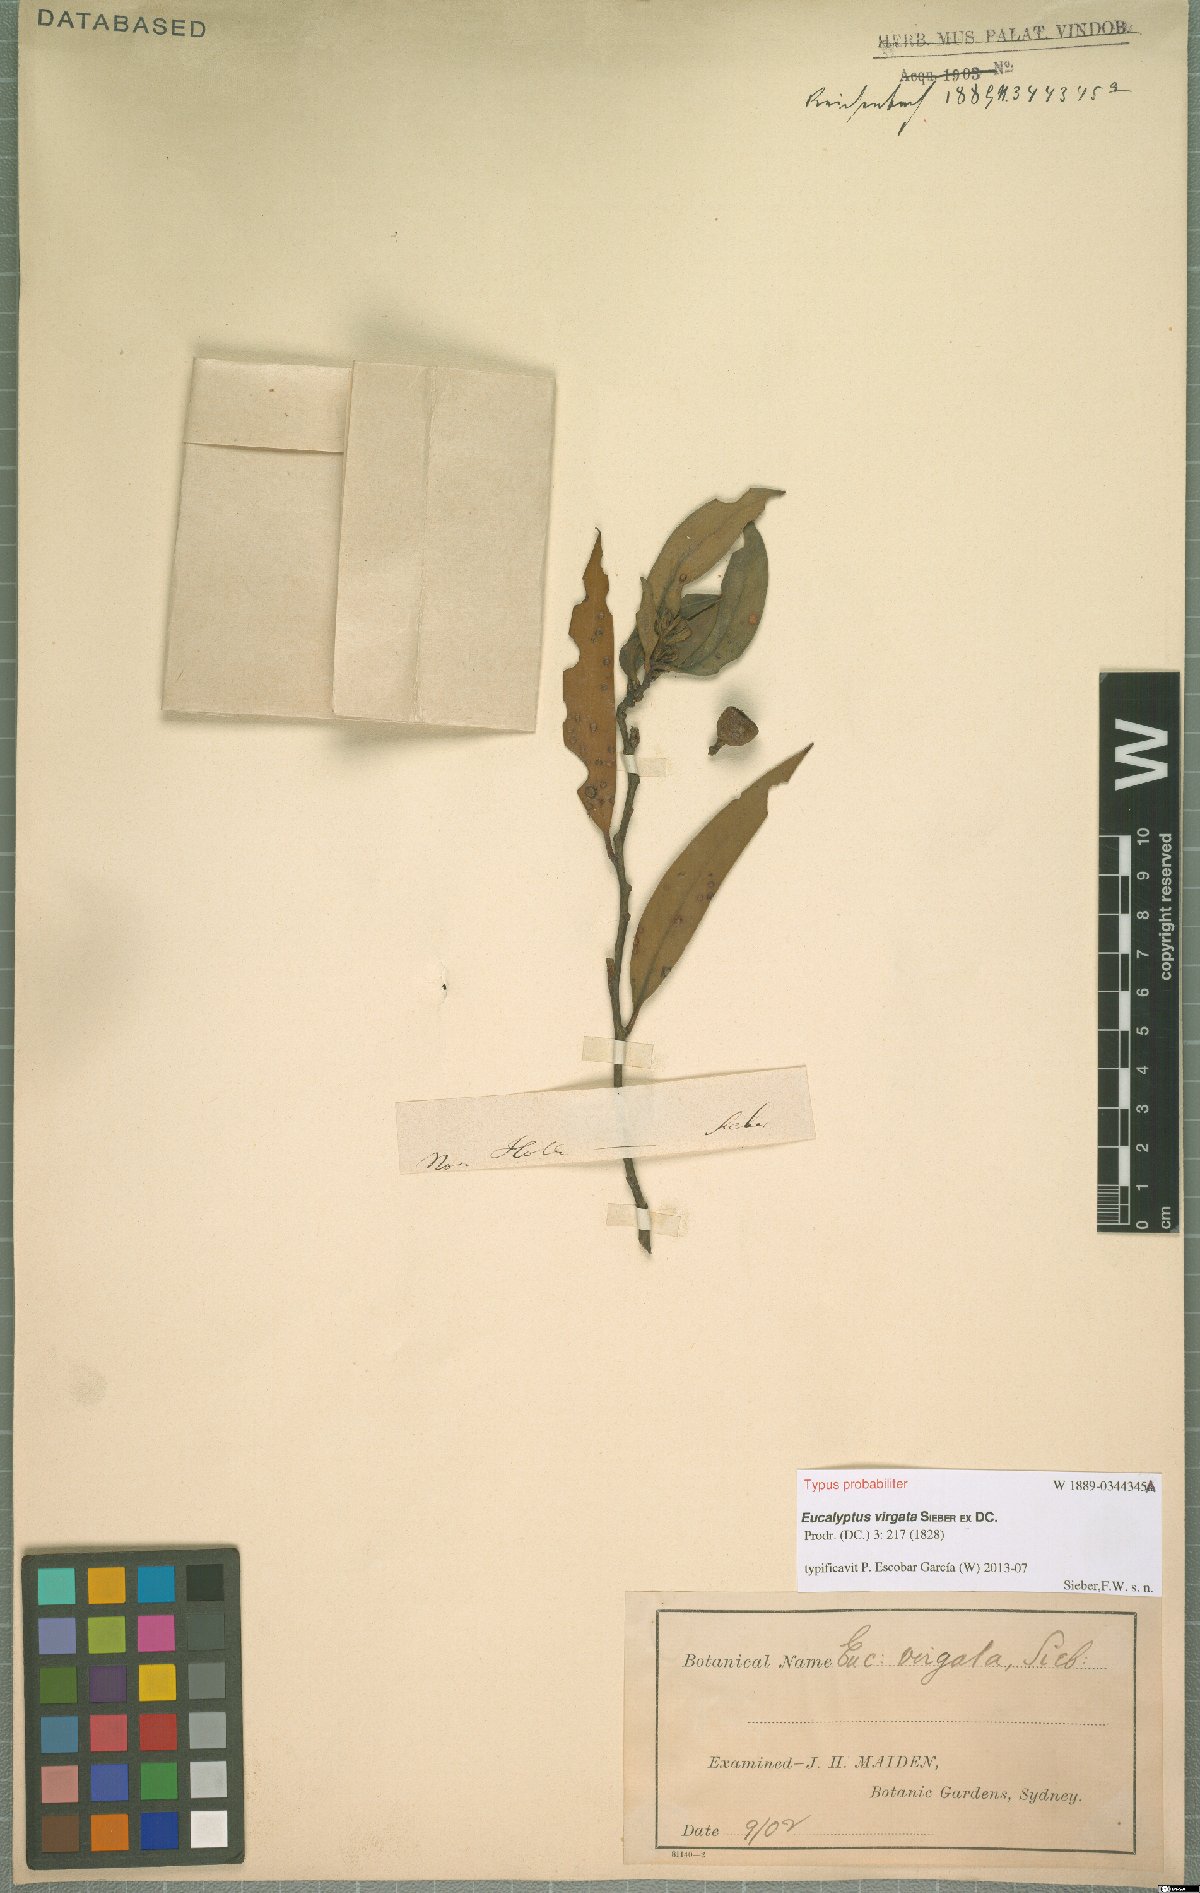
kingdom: Plantae
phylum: Tracheophyta
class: Magnoliopsida
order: Myrtales
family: Myrtaceae
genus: Eucalyptus
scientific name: Eucalyptus virgata
